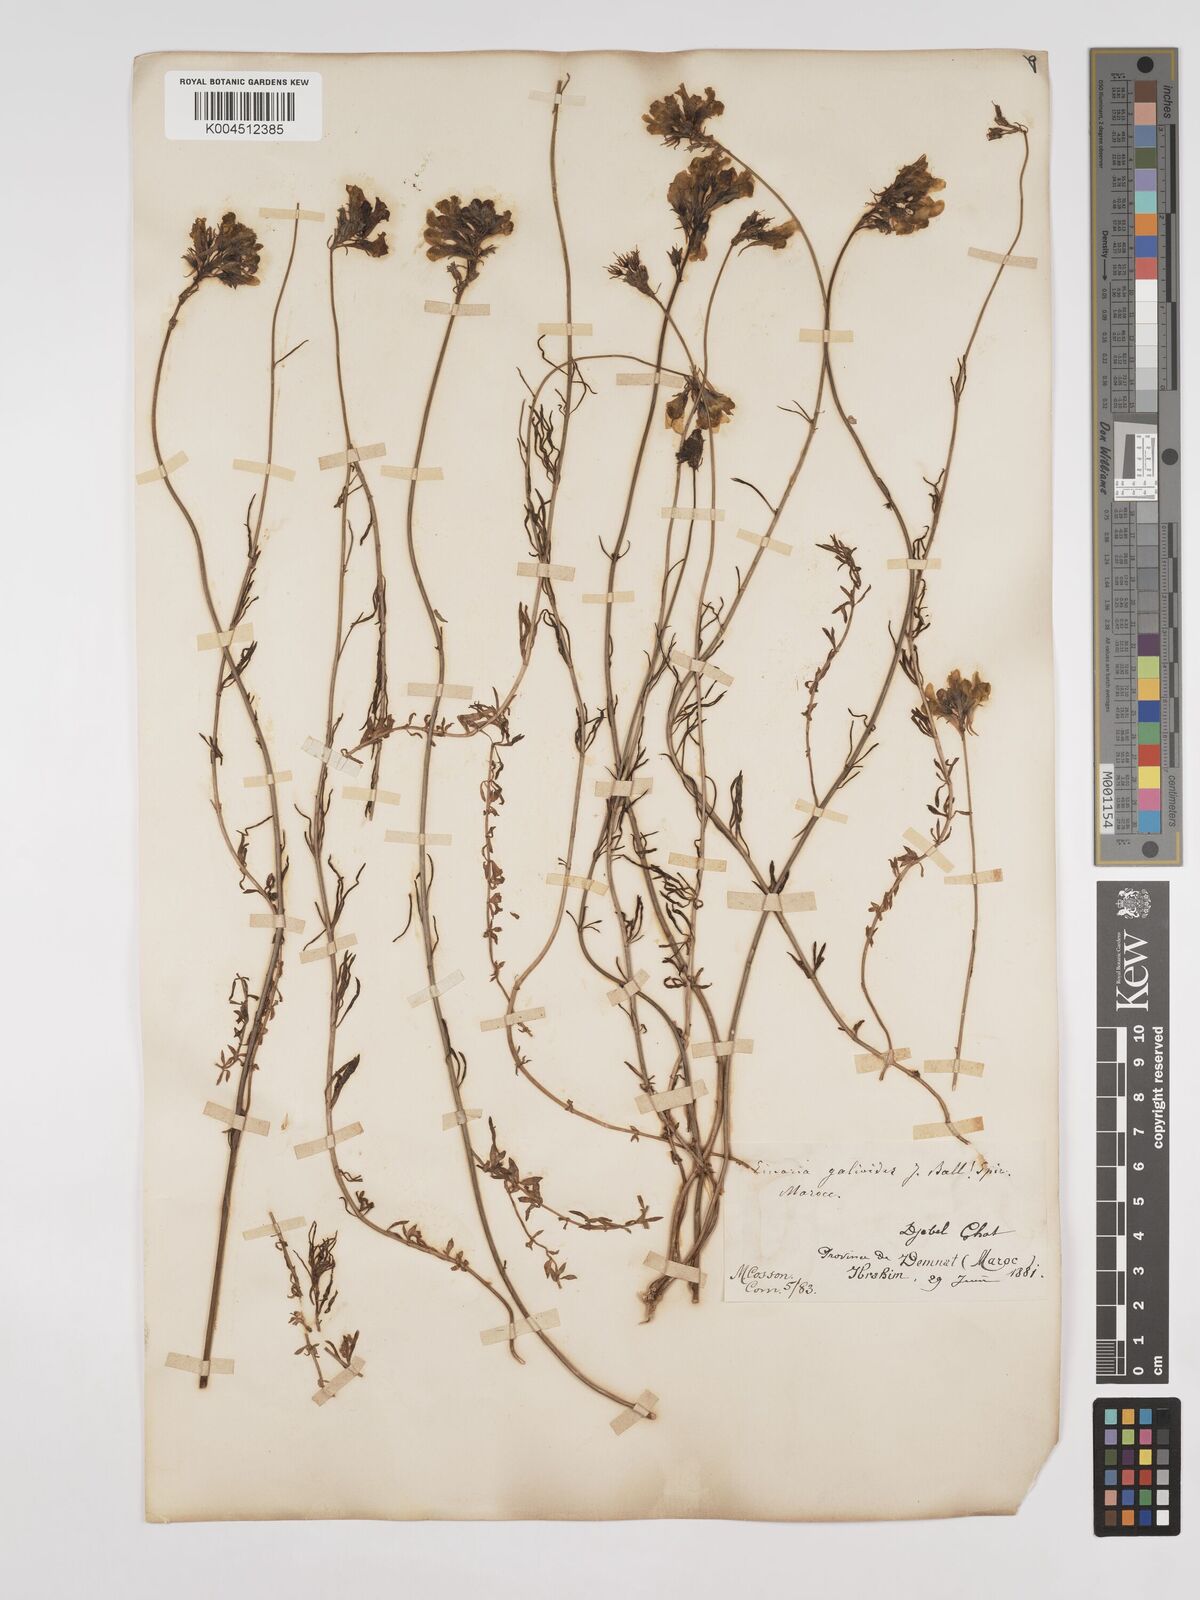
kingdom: Plantae
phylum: Tracheophyta
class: Magnoliopsida
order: Lamiales
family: Plantaginaceae
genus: Linaria
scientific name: Linaria
